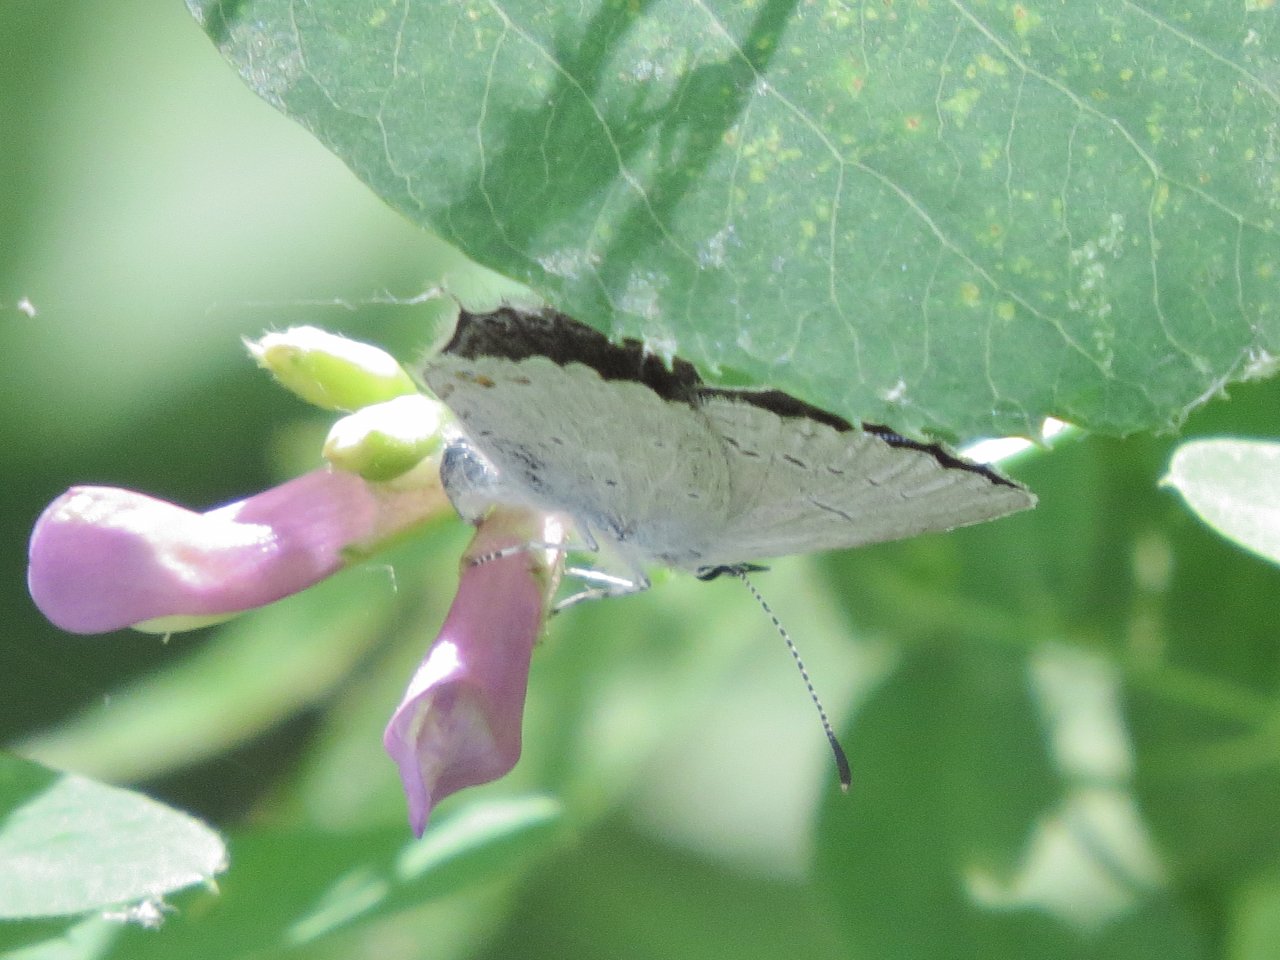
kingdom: Animalia
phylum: Arthropoda
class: Insecta
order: Lepidoptera
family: Lycaenidae
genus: Elkalyce
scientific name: Elkalyce amyntula
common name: Western Tailed-Blue
